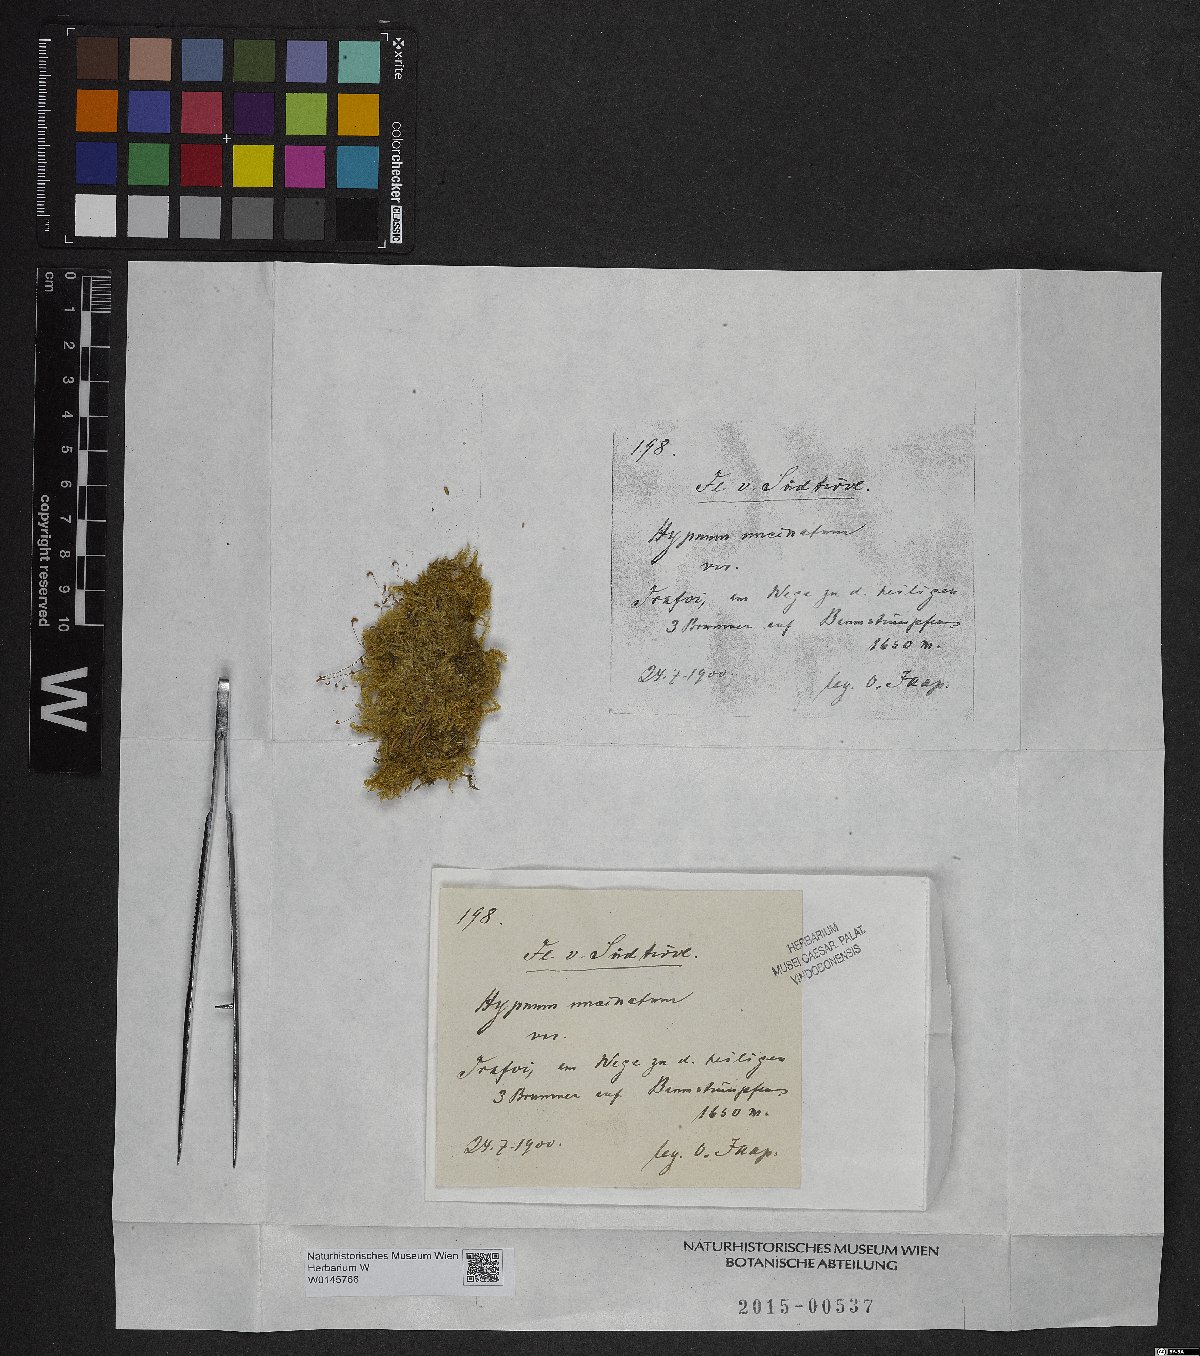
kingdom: Plantae
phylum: Bryophyta
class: Bryopsida
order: Hypnales
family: Scorpidiaceae
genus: Sanionia
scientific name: Sanionia uncinata
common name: Sickle moss
